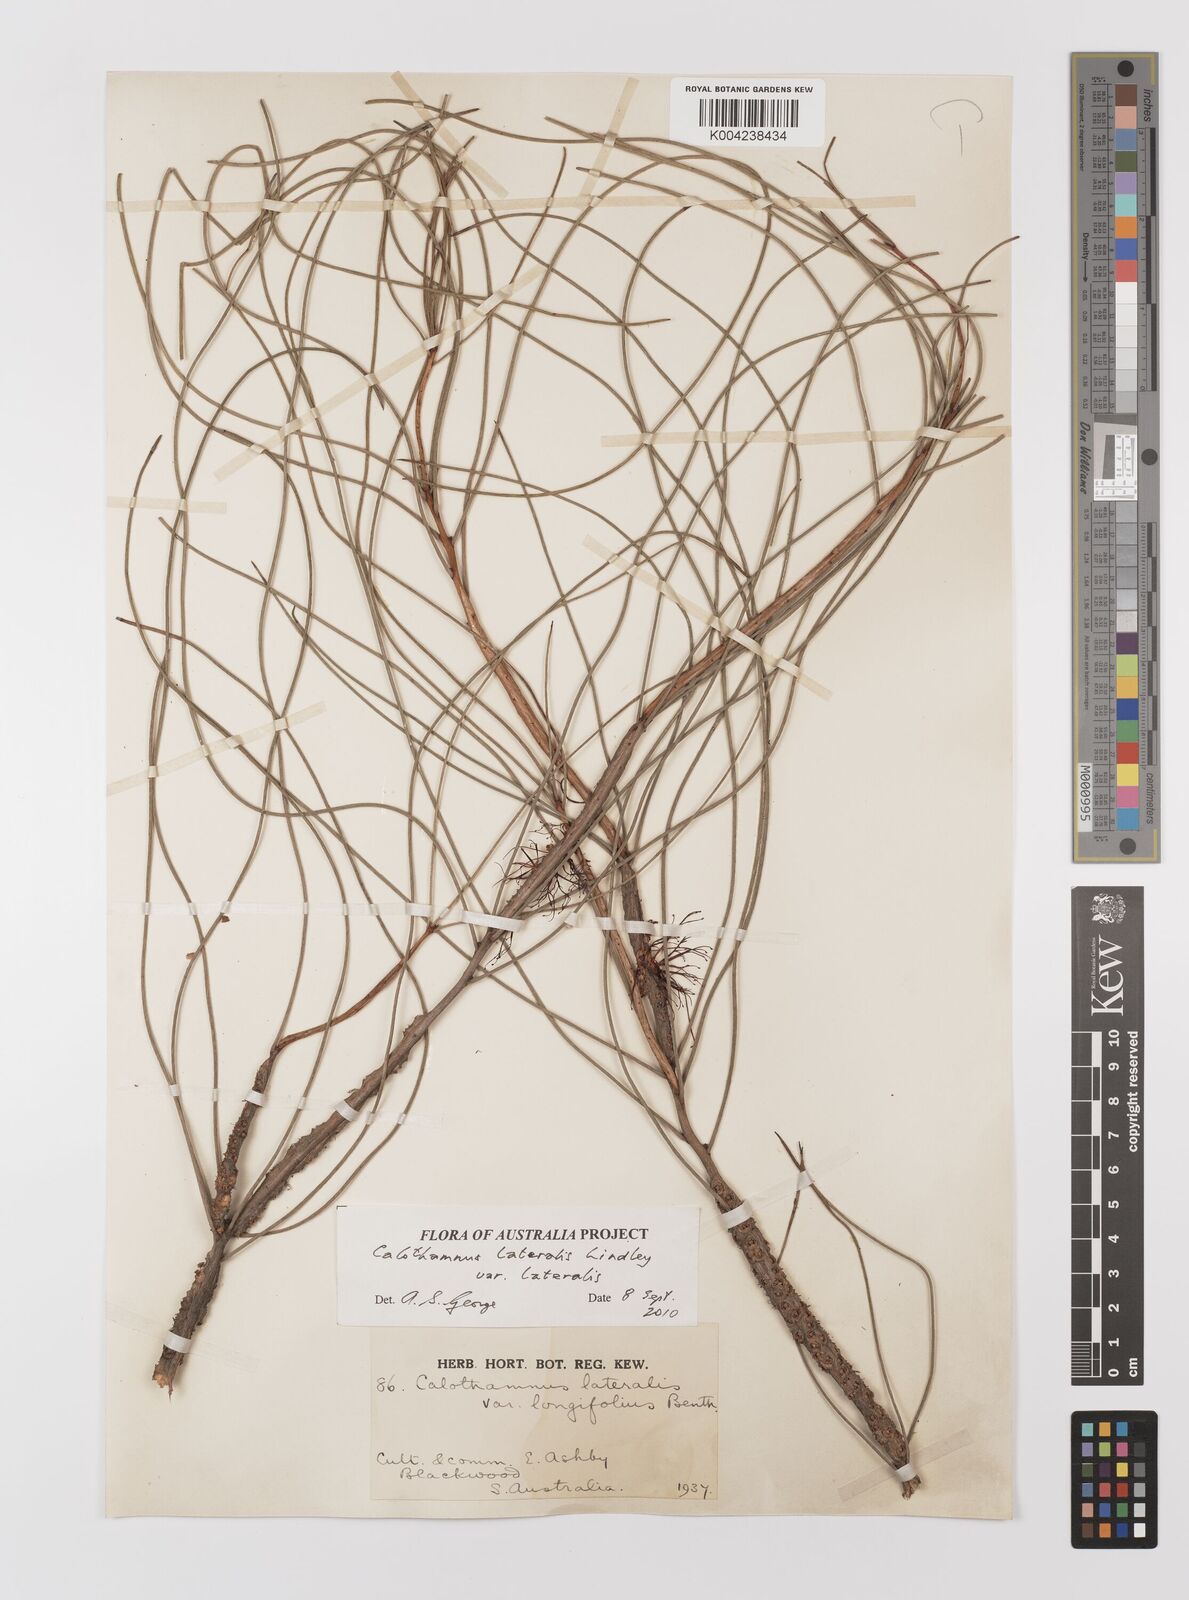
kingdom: Plantae
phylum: Tracheophyta
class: Magnoliopsida
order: Myrtales
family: Myrtaceae
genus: Melaleuca
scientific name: Melaleuca lateralis
